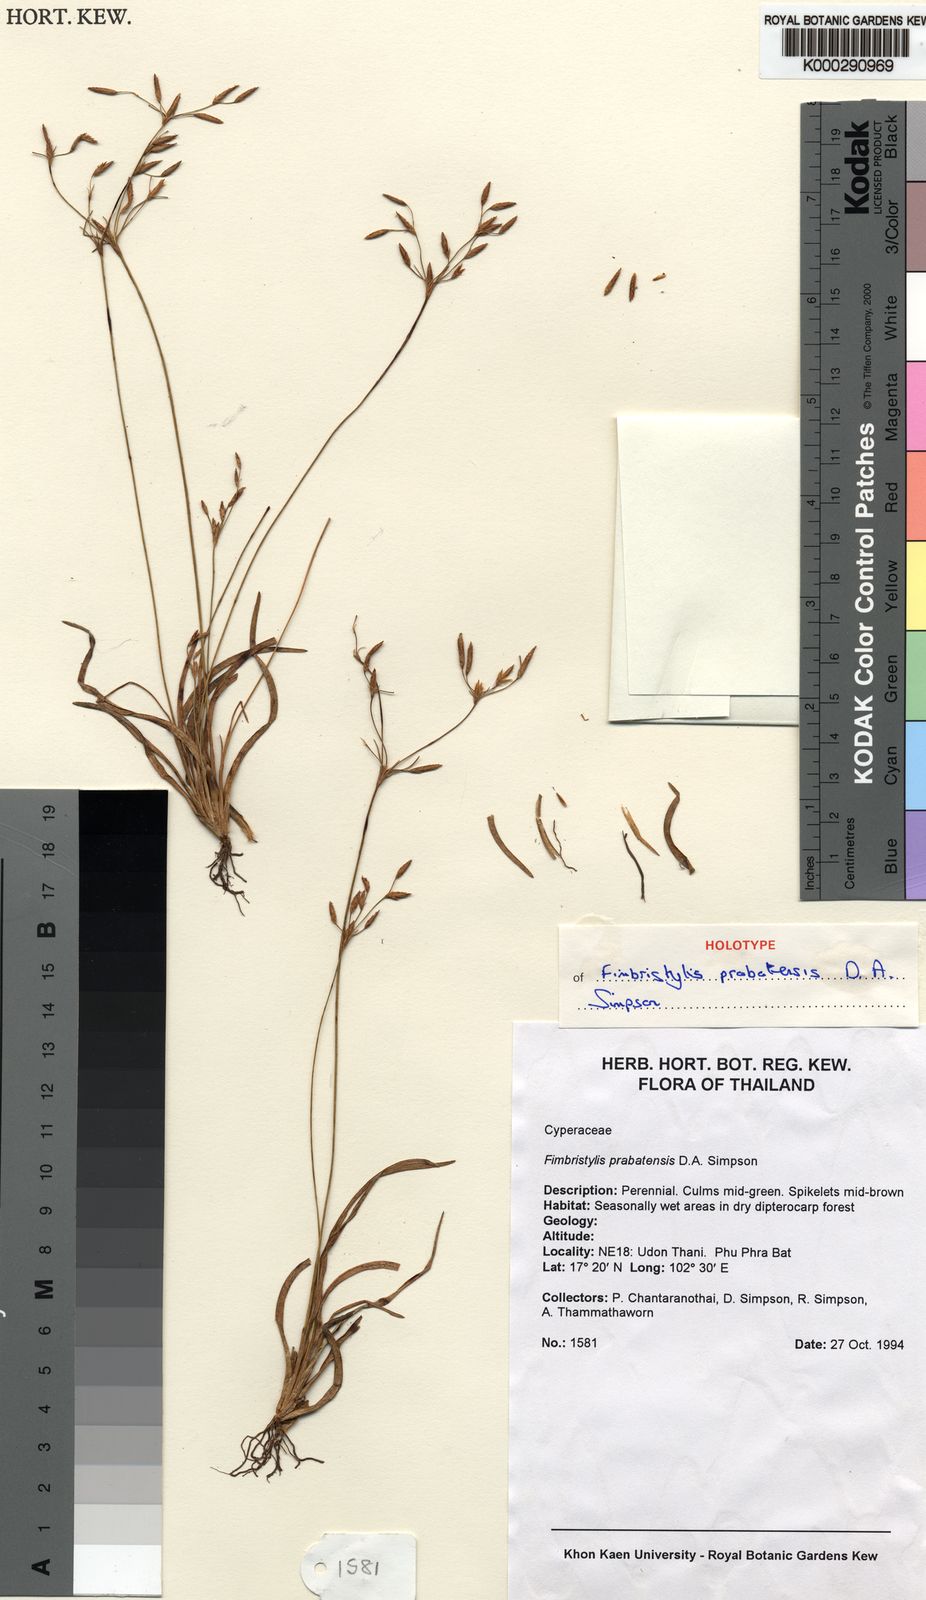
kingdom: Plantae
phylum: Tracheophyta
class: Liliopsida
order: Poales
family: Cyperaceae
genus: Fimbristylis
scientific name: Fimbristylis prabatensis
